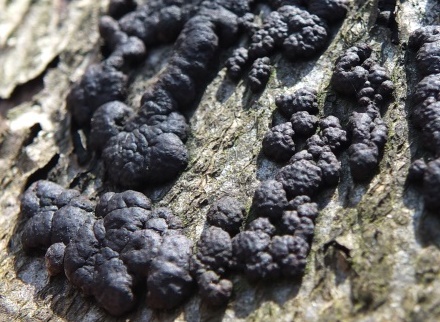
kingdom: Fungi
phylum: Ascomycota
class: Sordariomycetes
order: Xylariales
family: Hypoxylaceae
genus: Jackrogersella
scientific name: Jackrogersella cohaerens
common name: sammenflydende kulbær
